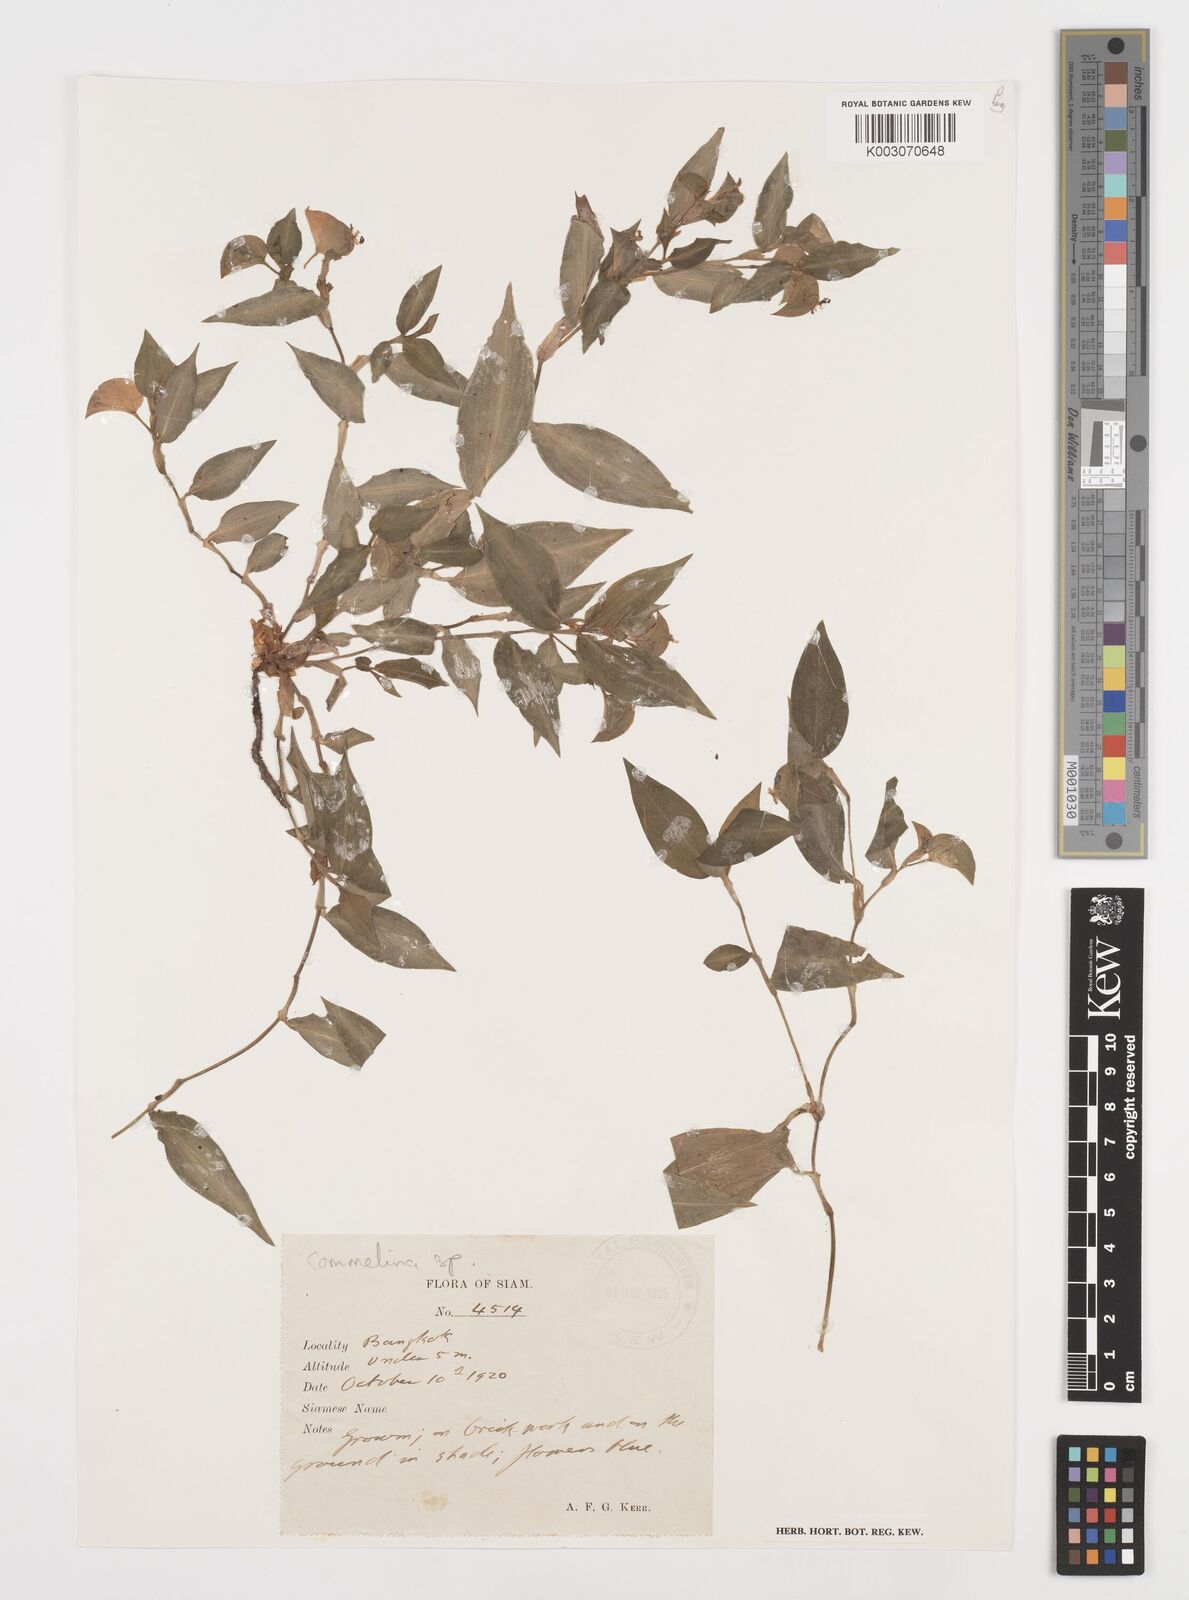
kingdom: Plantae
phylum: Tracheophyta
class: Liliopsida
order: Commelinales
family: Commelinaceae
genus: Commelina
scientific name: Commelina
